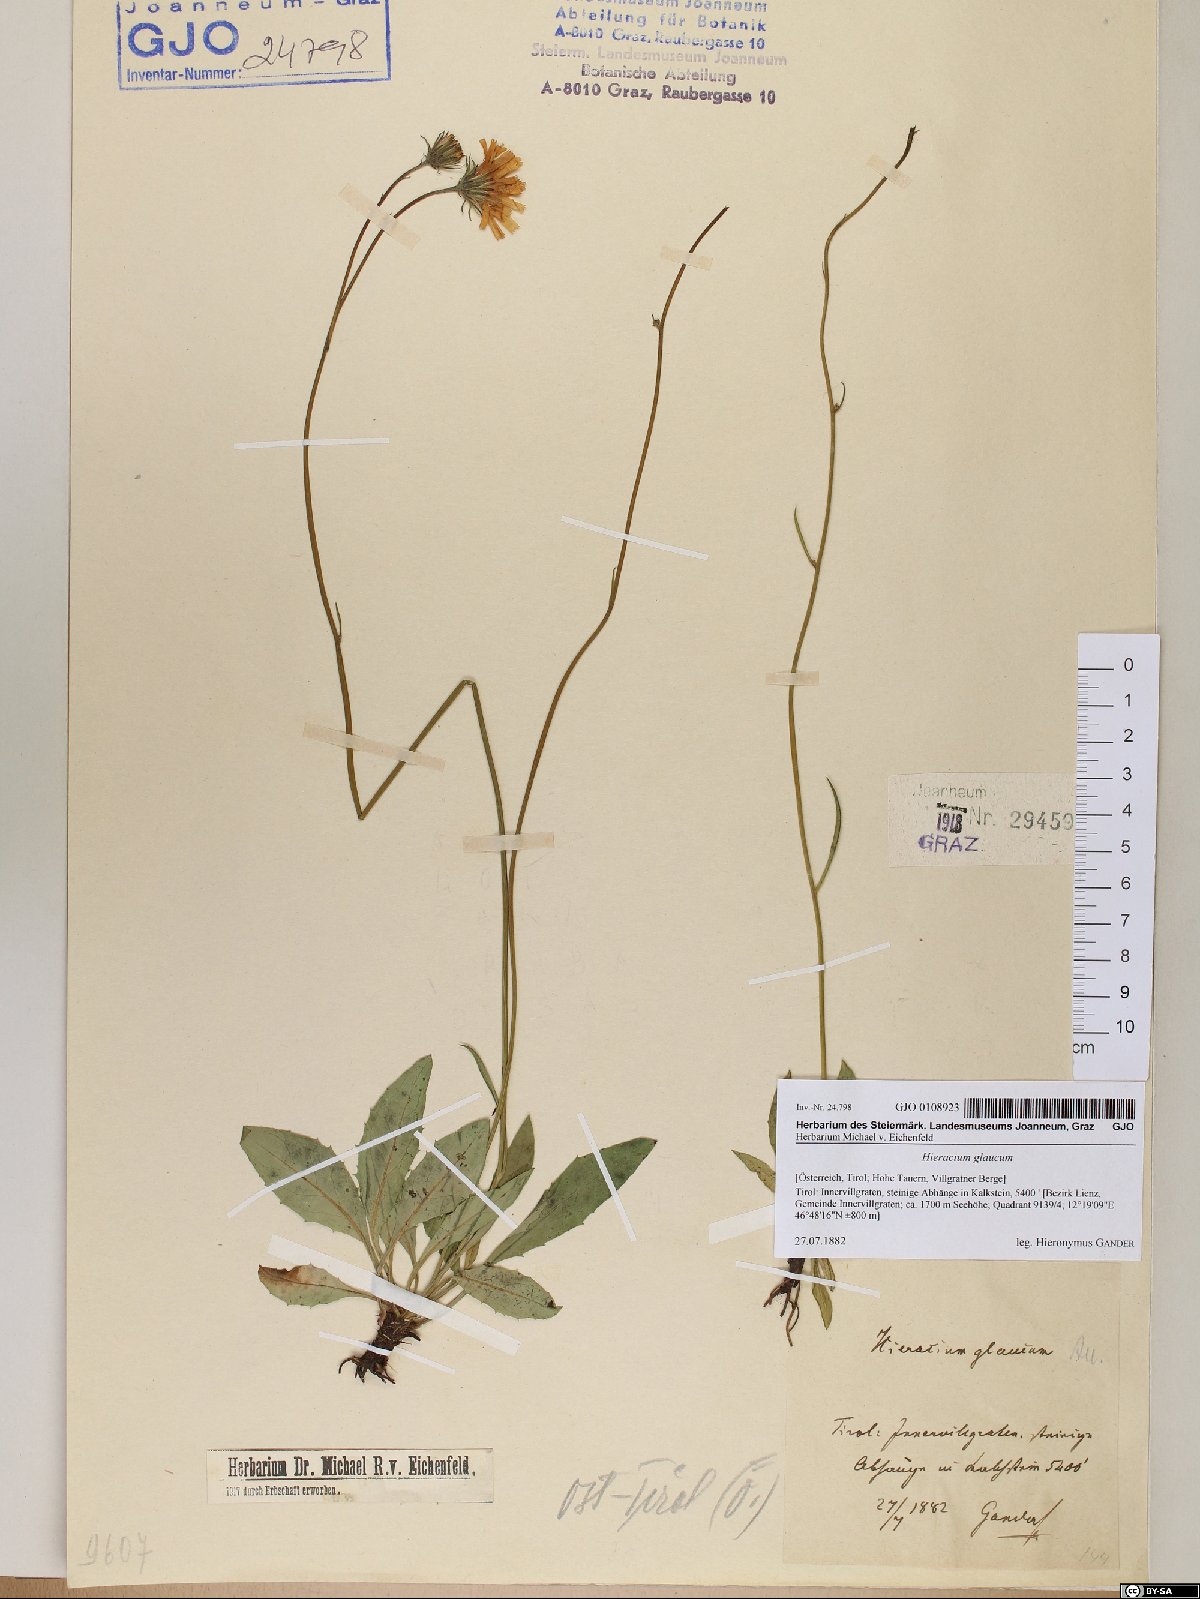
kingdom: Plantae
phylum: Tracheophyta
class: Magnoliopsida
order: Asterales
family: Asteraceae
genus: Hieracium
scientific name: Hieracium glaucum
